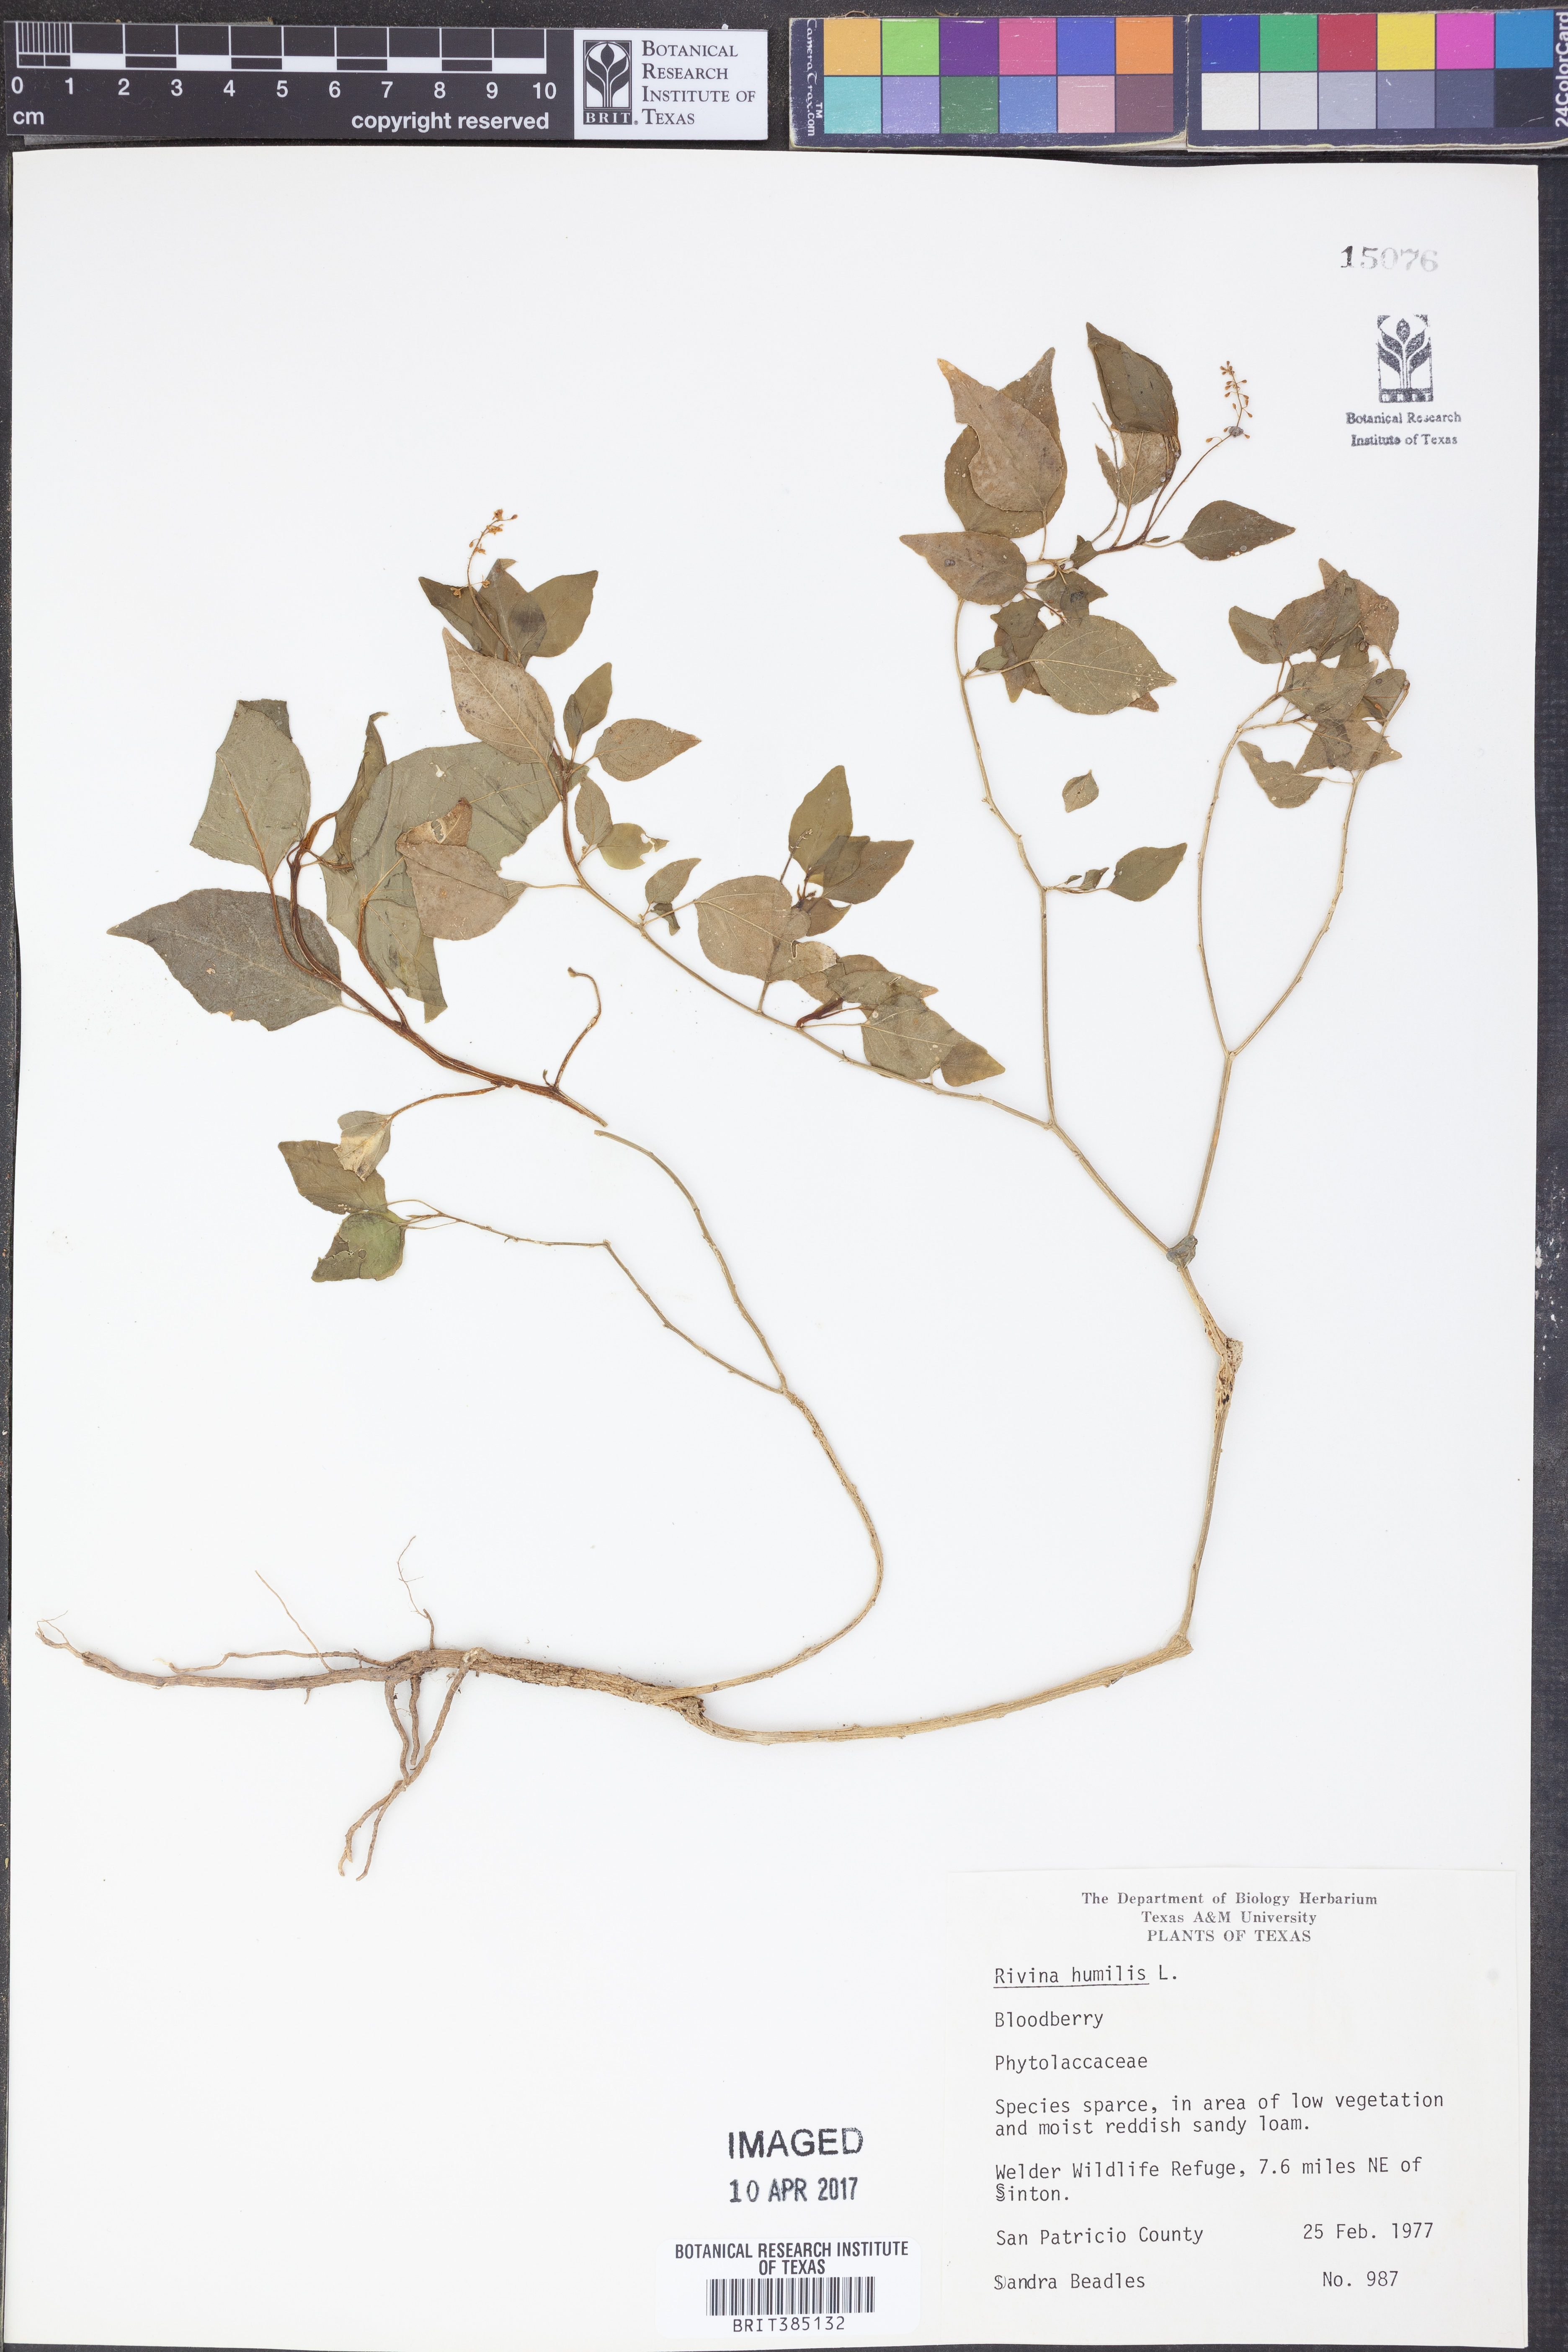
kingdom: Plantae
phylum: Tracheophyta
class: Magnoliopsida
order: Caryophyllales
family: Phytolaccaceae
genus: Rivina
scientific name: Rivina humilis
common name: Rougeplant
